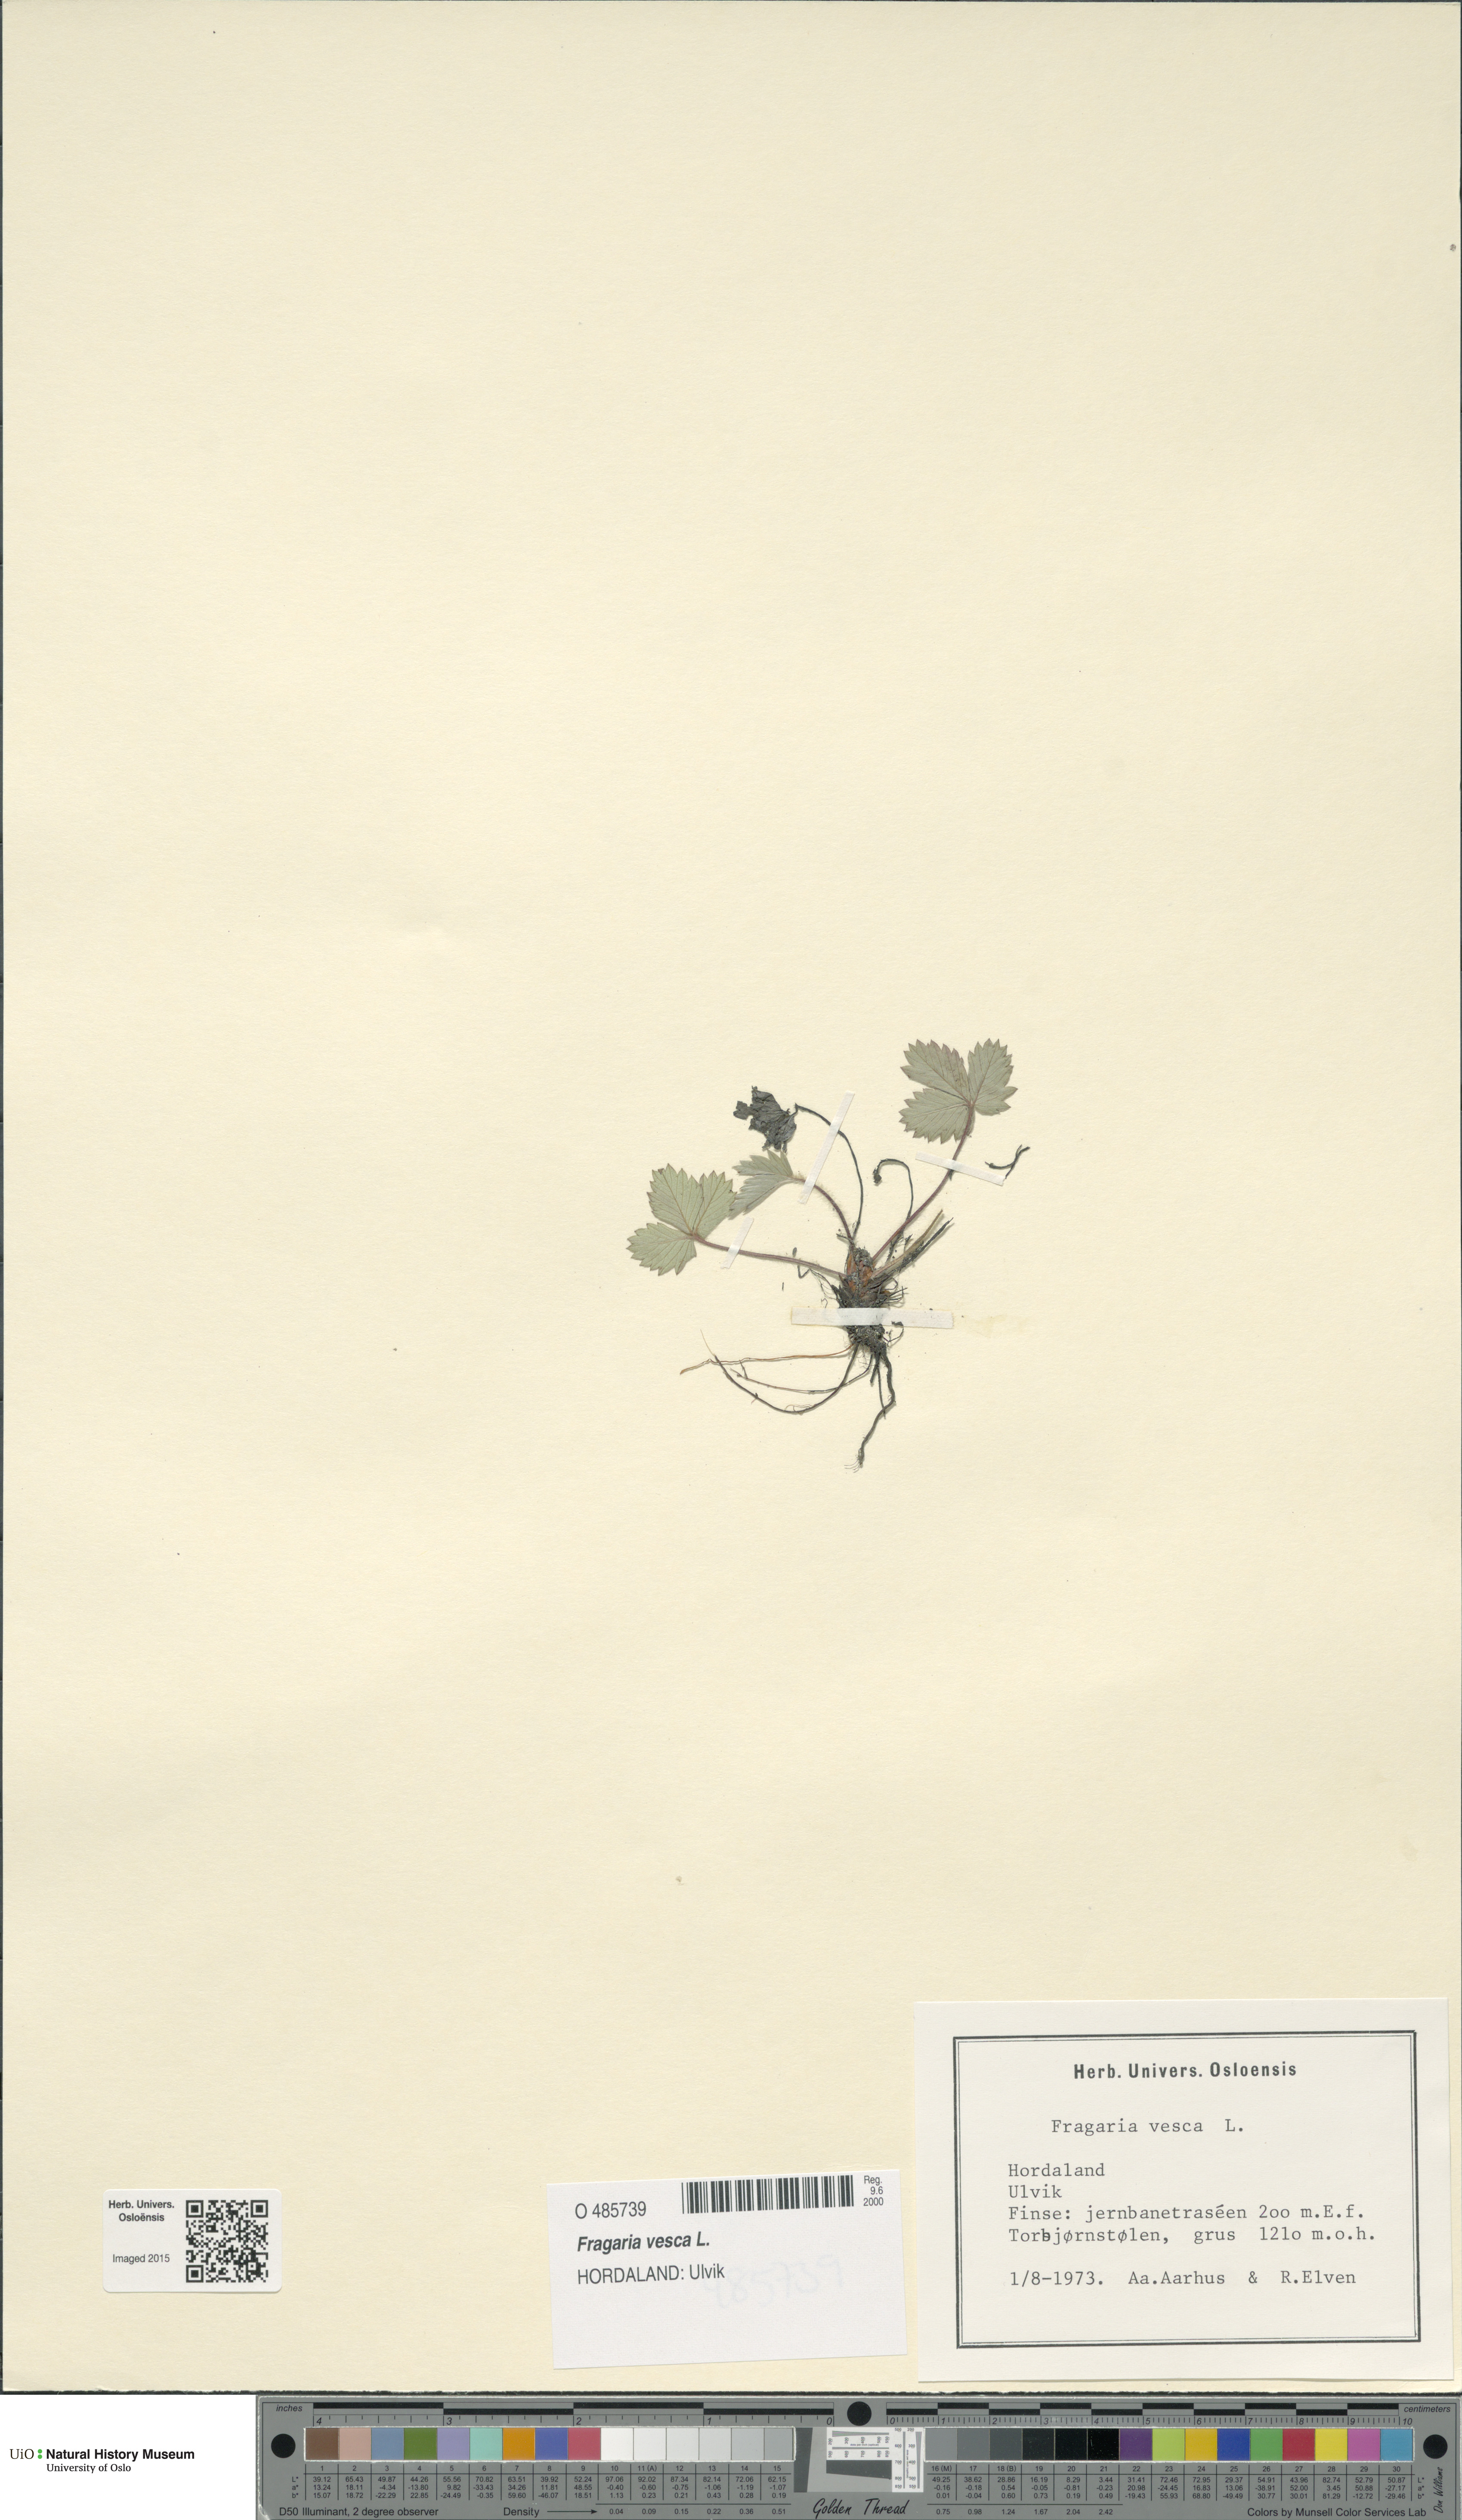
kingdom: Plantae
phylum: Tracheophyta
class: Magnoliopsida
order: Rosales
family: Rosaceae
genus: Fragaria
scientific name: Fragaria vesca
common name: Wild strawberry
